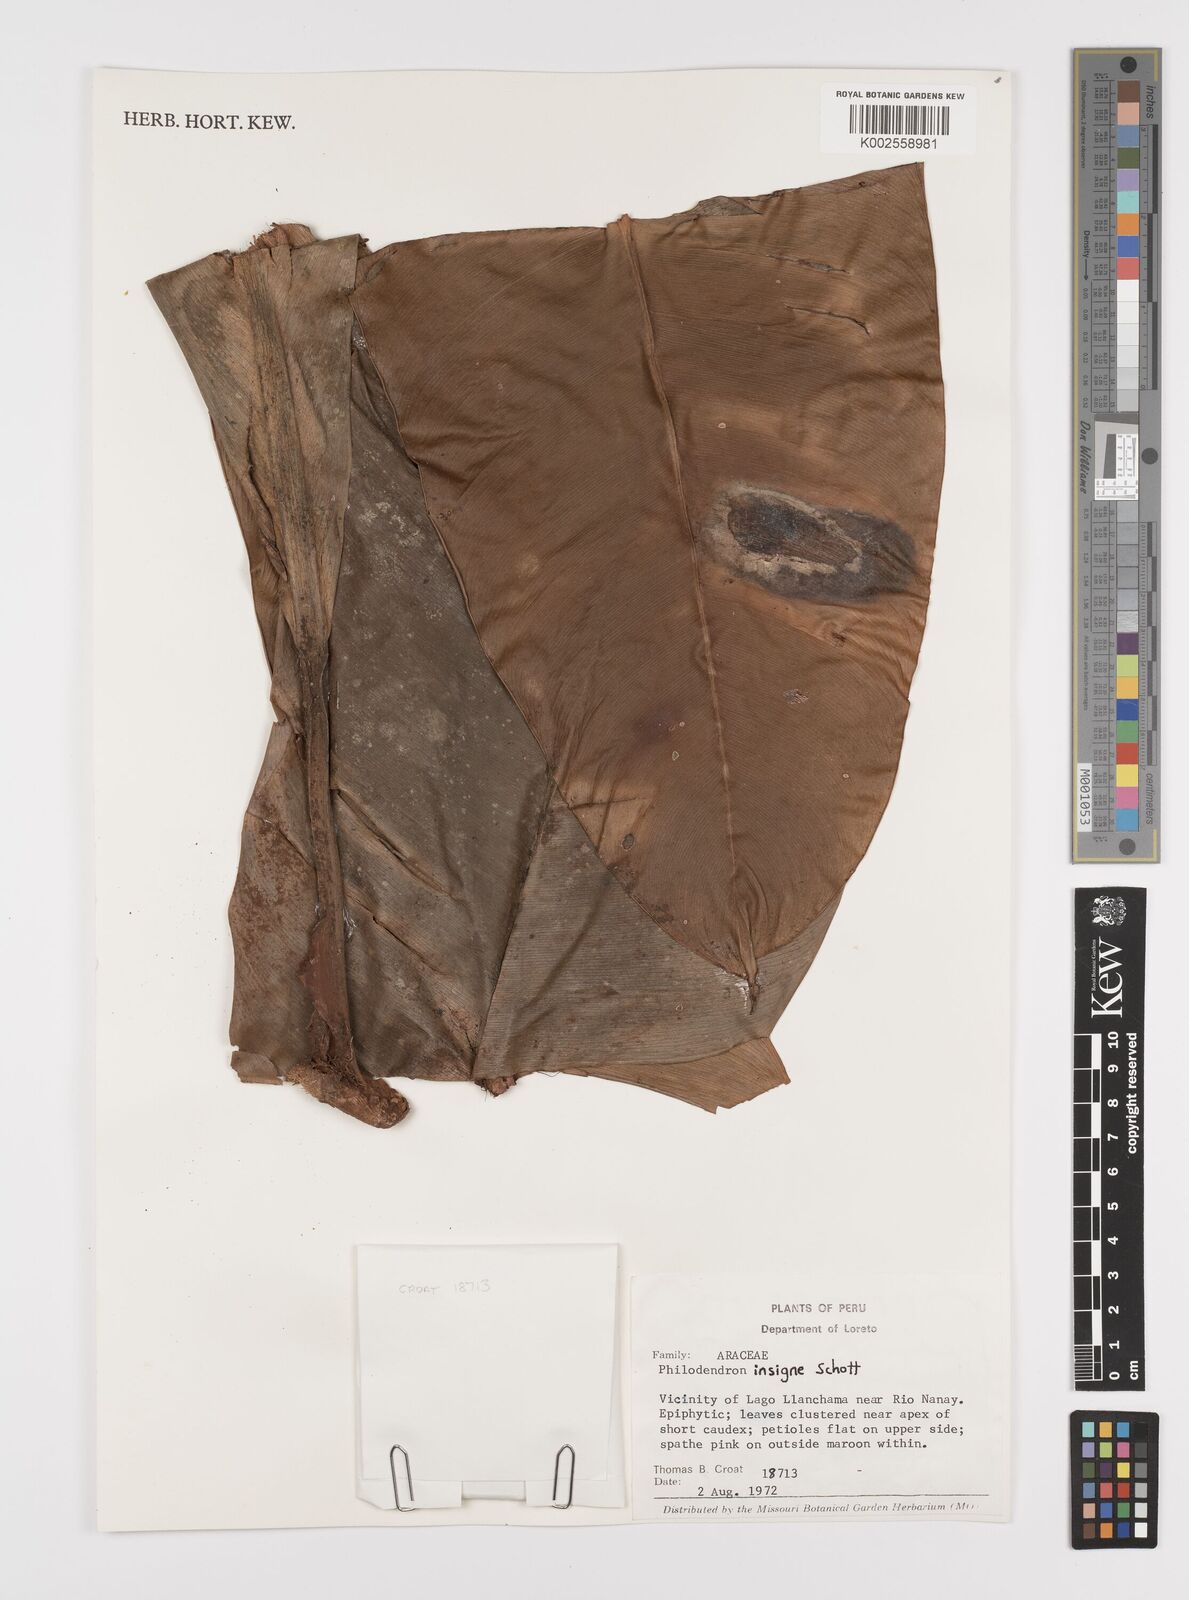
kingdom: Plantae
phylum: Tracheophyta
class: Liliopsida
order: Alismatales
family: Araceae
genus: Philodendron
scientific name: Philodendron insigne
